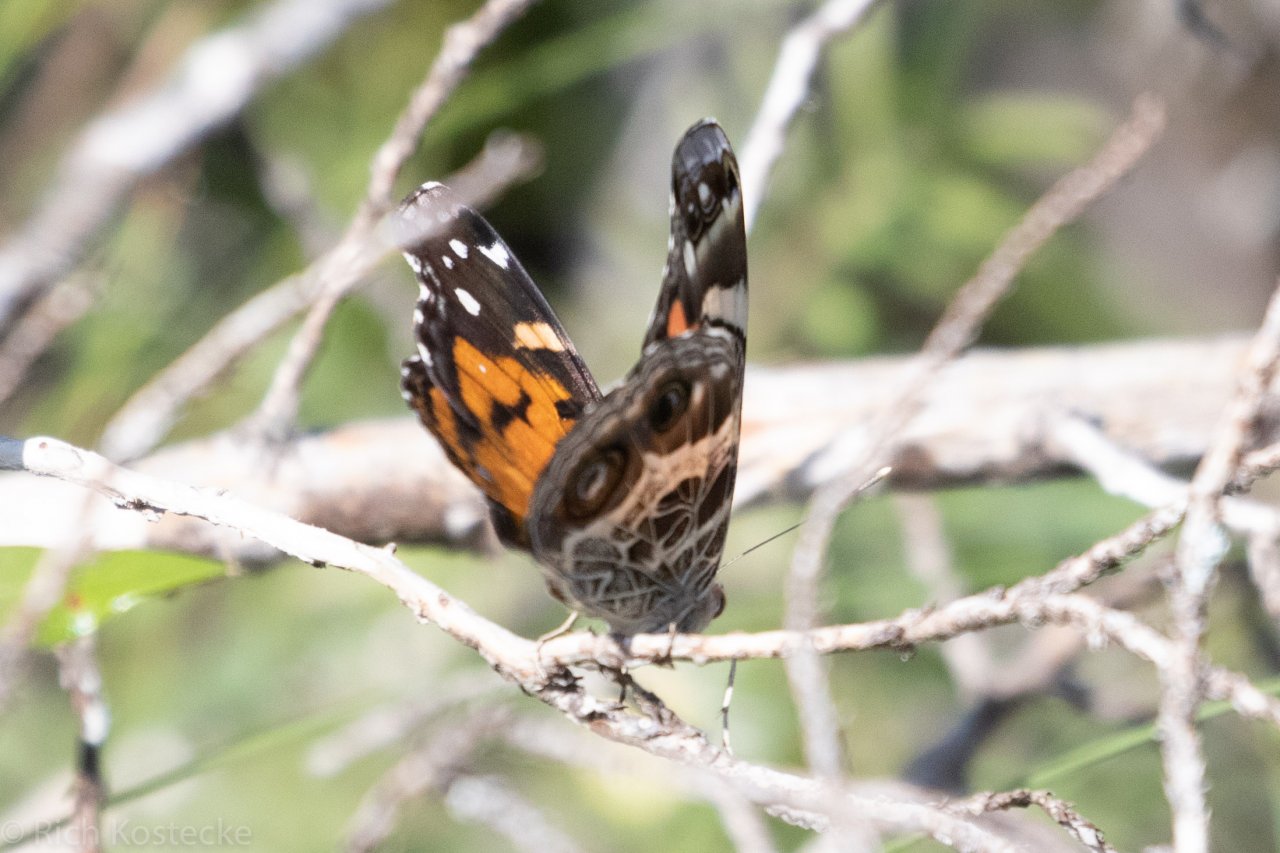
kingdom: Animalia
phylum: Arthropoda
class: Insecta
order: Lepidoptera
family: Nymphalidae
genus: Vanessa
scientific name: Vanessa virginiensis
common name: American Lady
